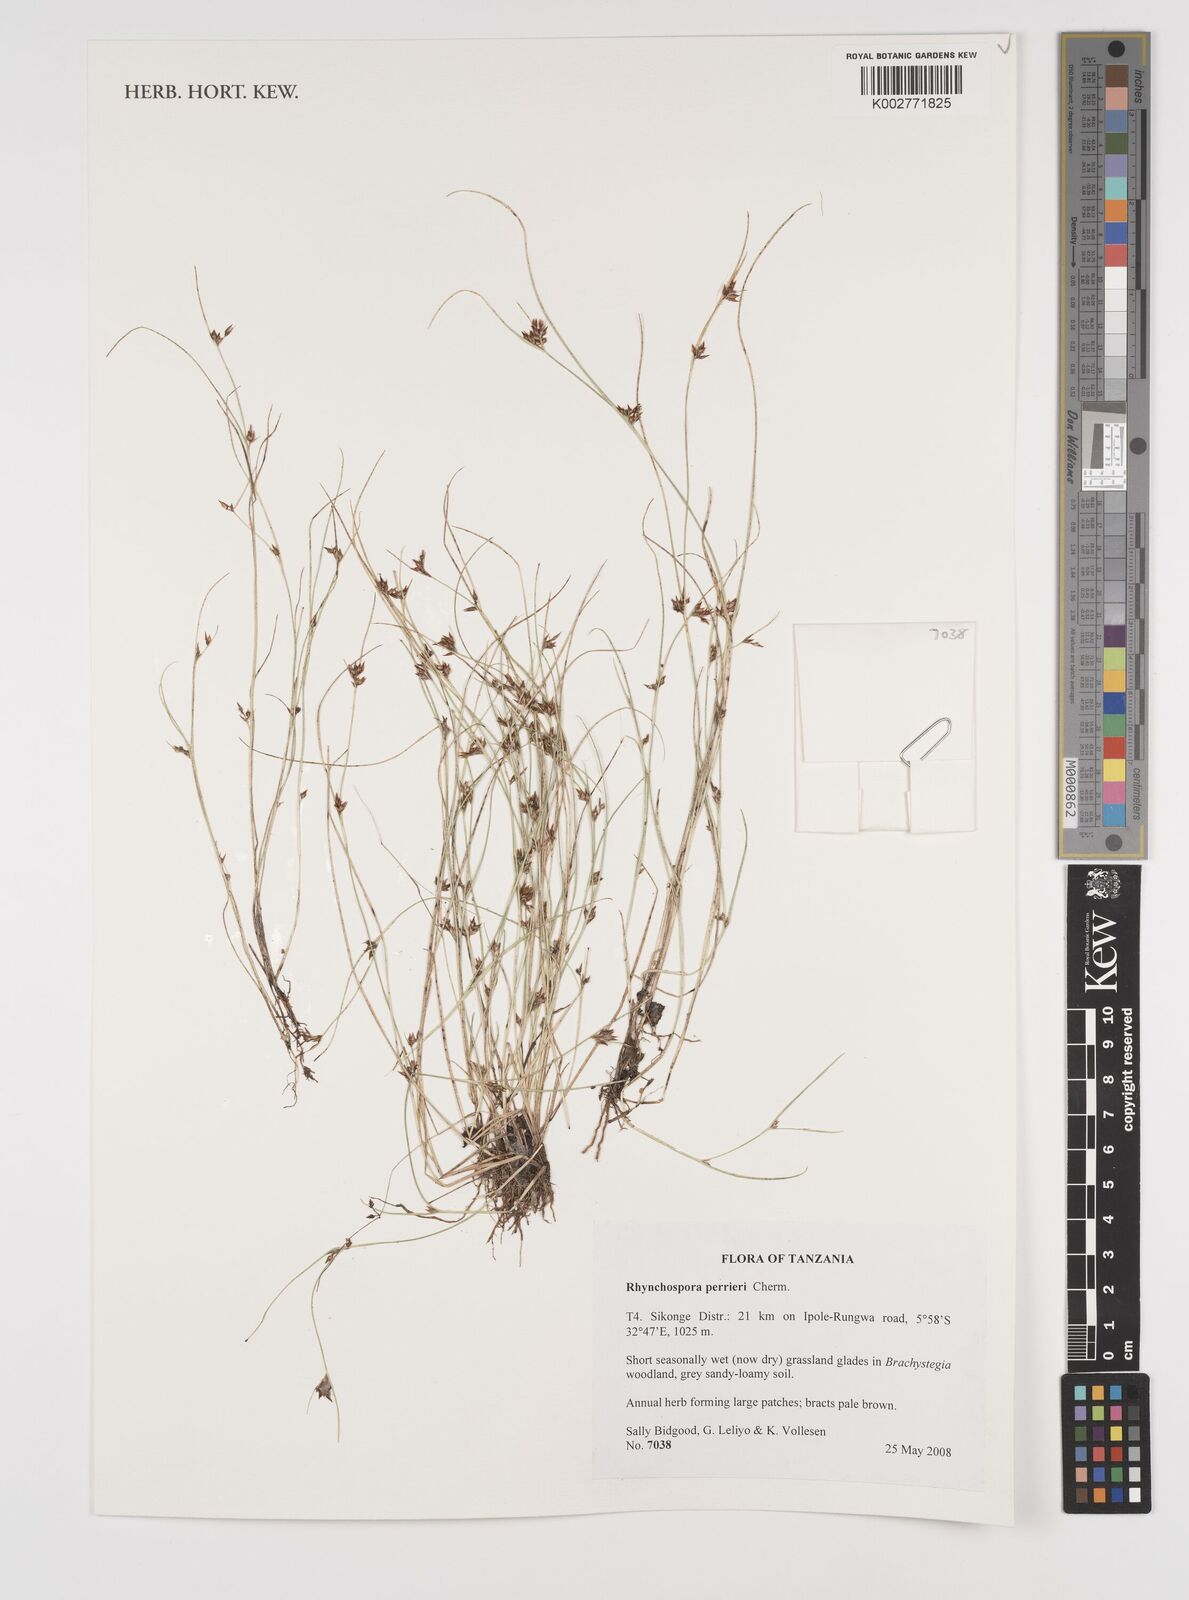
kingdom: Plantae
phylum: Tracheophyta
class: Liliopsida
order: Poales
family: Cyperaceae
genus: Rhynchospora
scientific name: Rhynchospora perrieri
